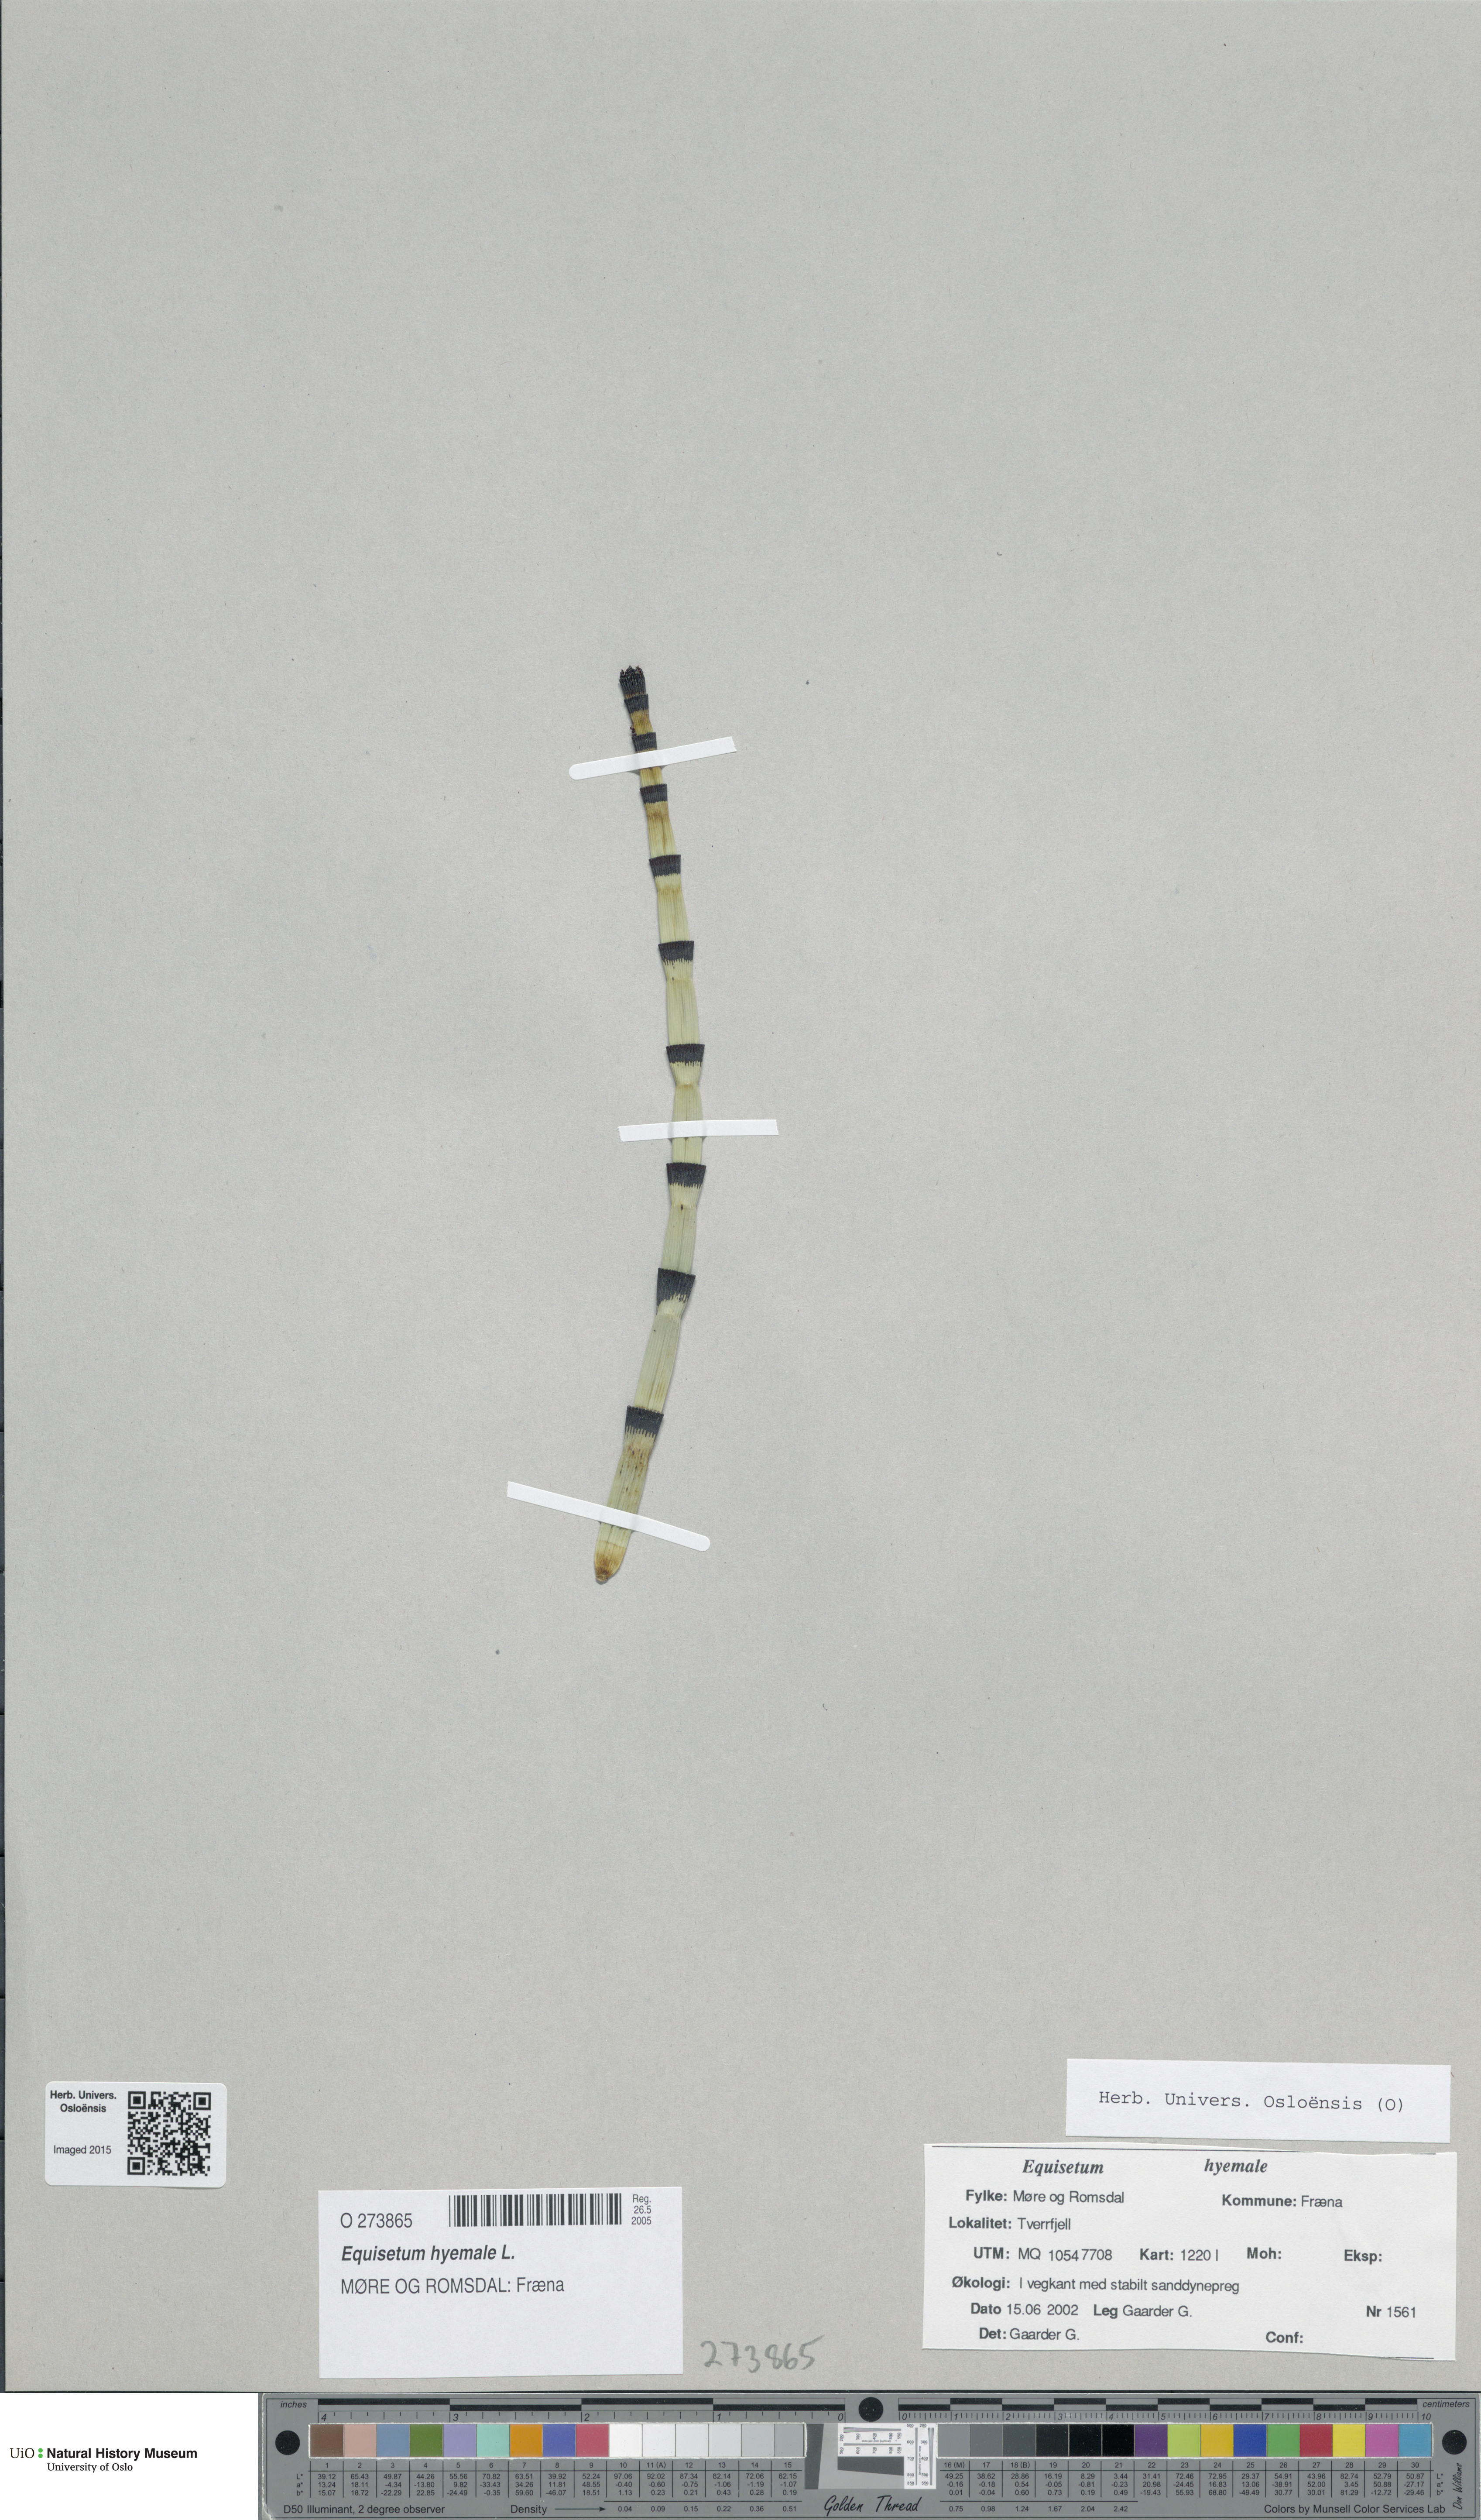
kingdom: Plantae
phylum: Tracheophyta
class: Polypodiopsida
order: Equisetales
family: Equisetaceae
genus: Equisetum
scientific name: Equisetum hyemale
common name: Rough horsetail
